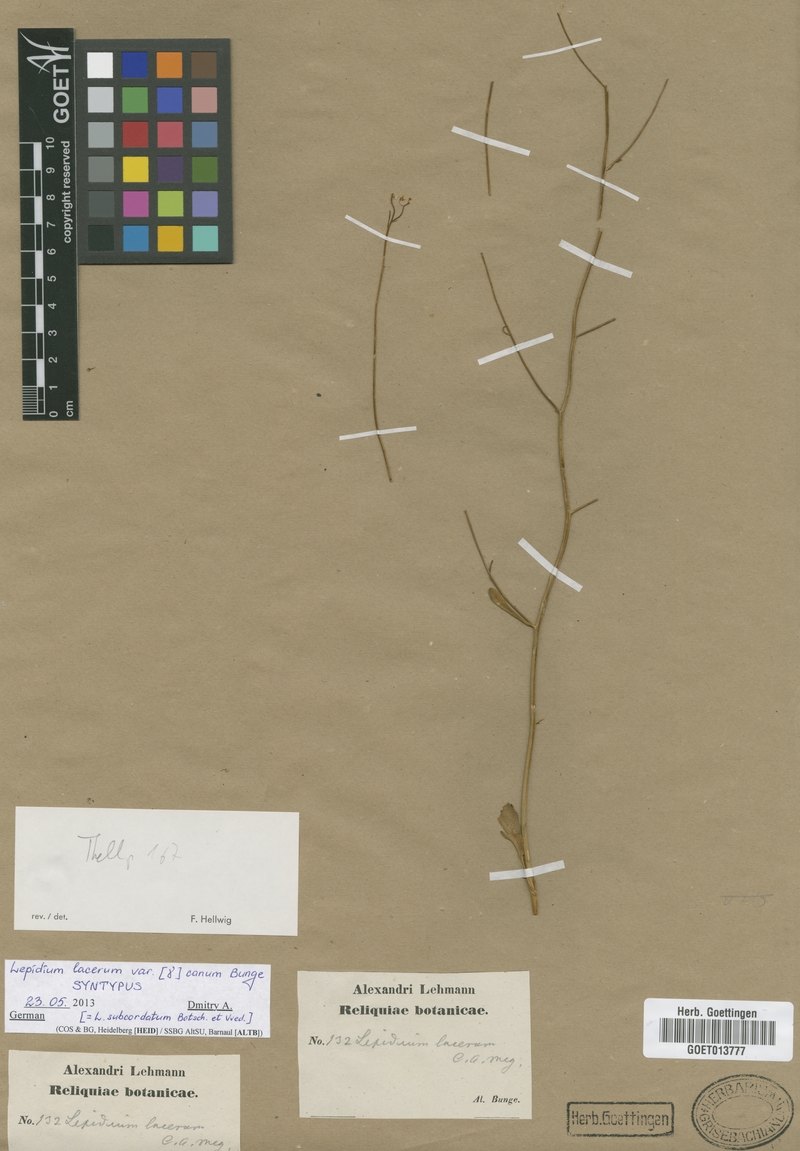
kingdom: Plantae
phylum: Tracheophyta
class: Magnoliopsida
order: Brassicales
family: Brassicaceae
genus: Lepidium
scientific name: Lepidium lacerum
